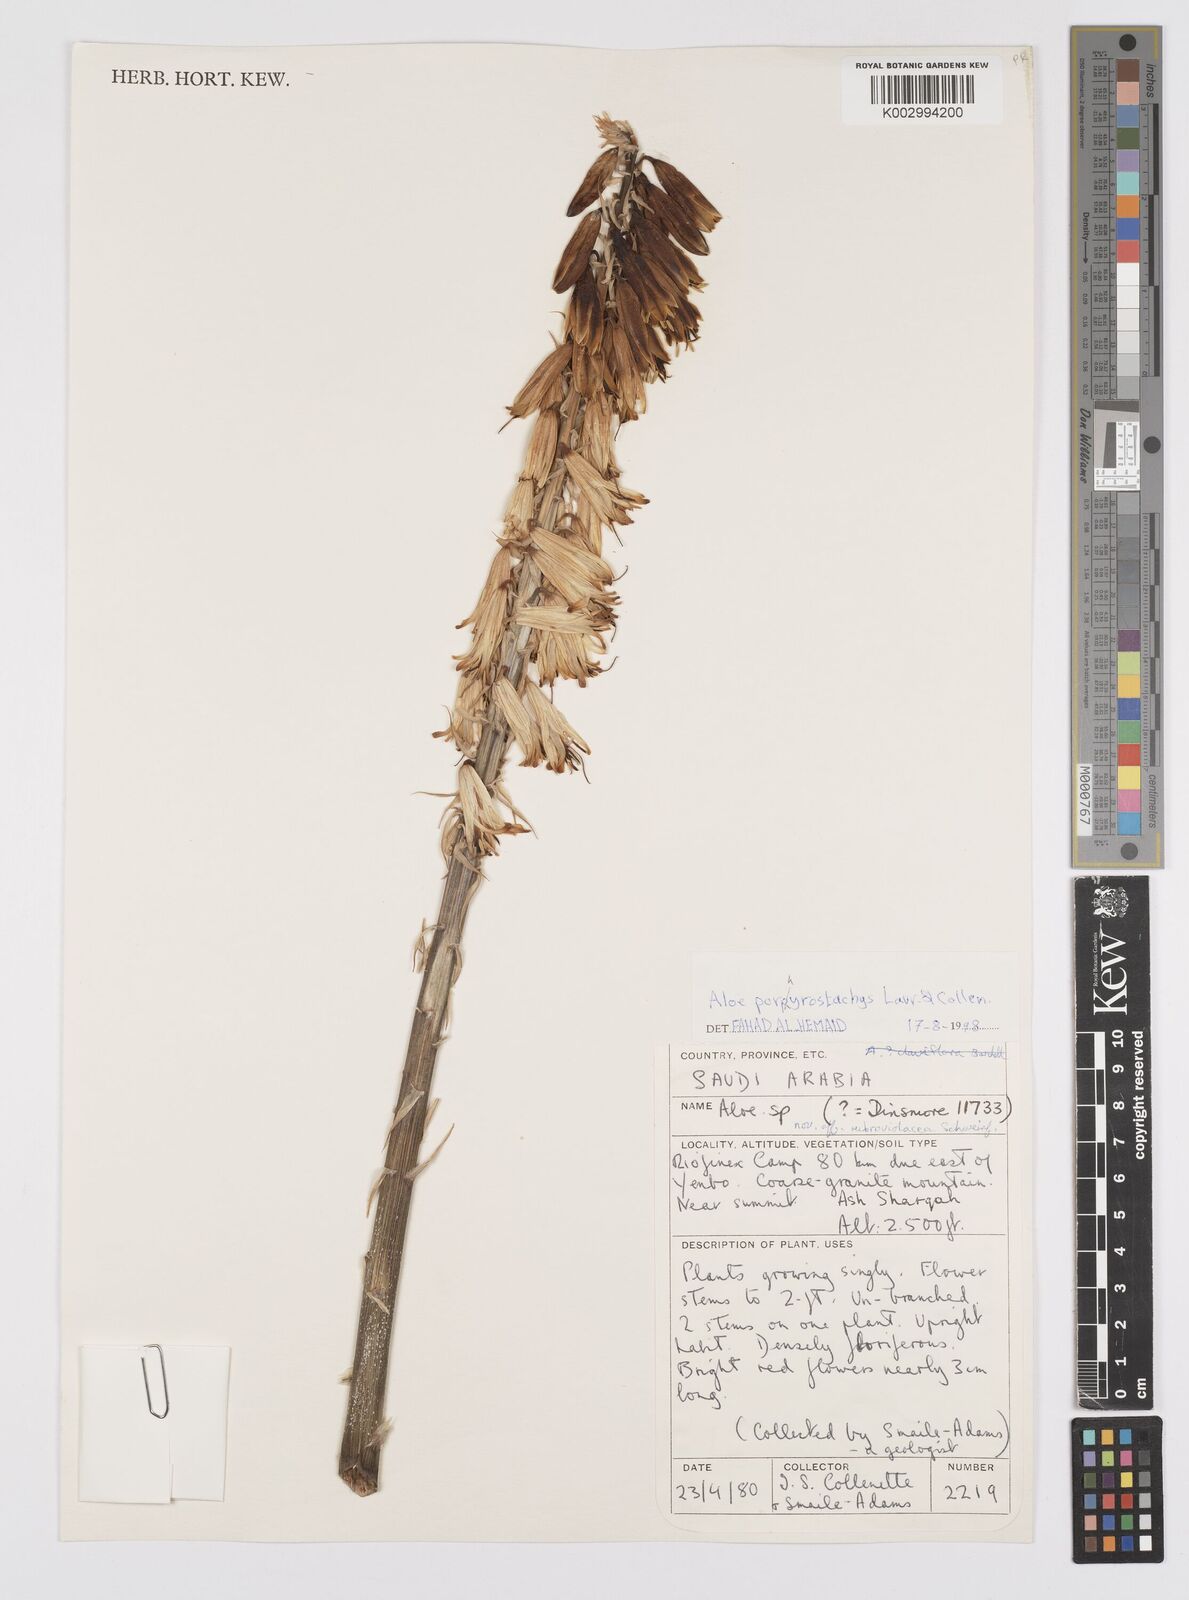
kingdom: Plantae
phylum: Tracheophyta
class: Liliopsida
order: Asparagales
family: Asphodelaceae
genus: Aloe
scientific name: Aloe porphyrostachys
